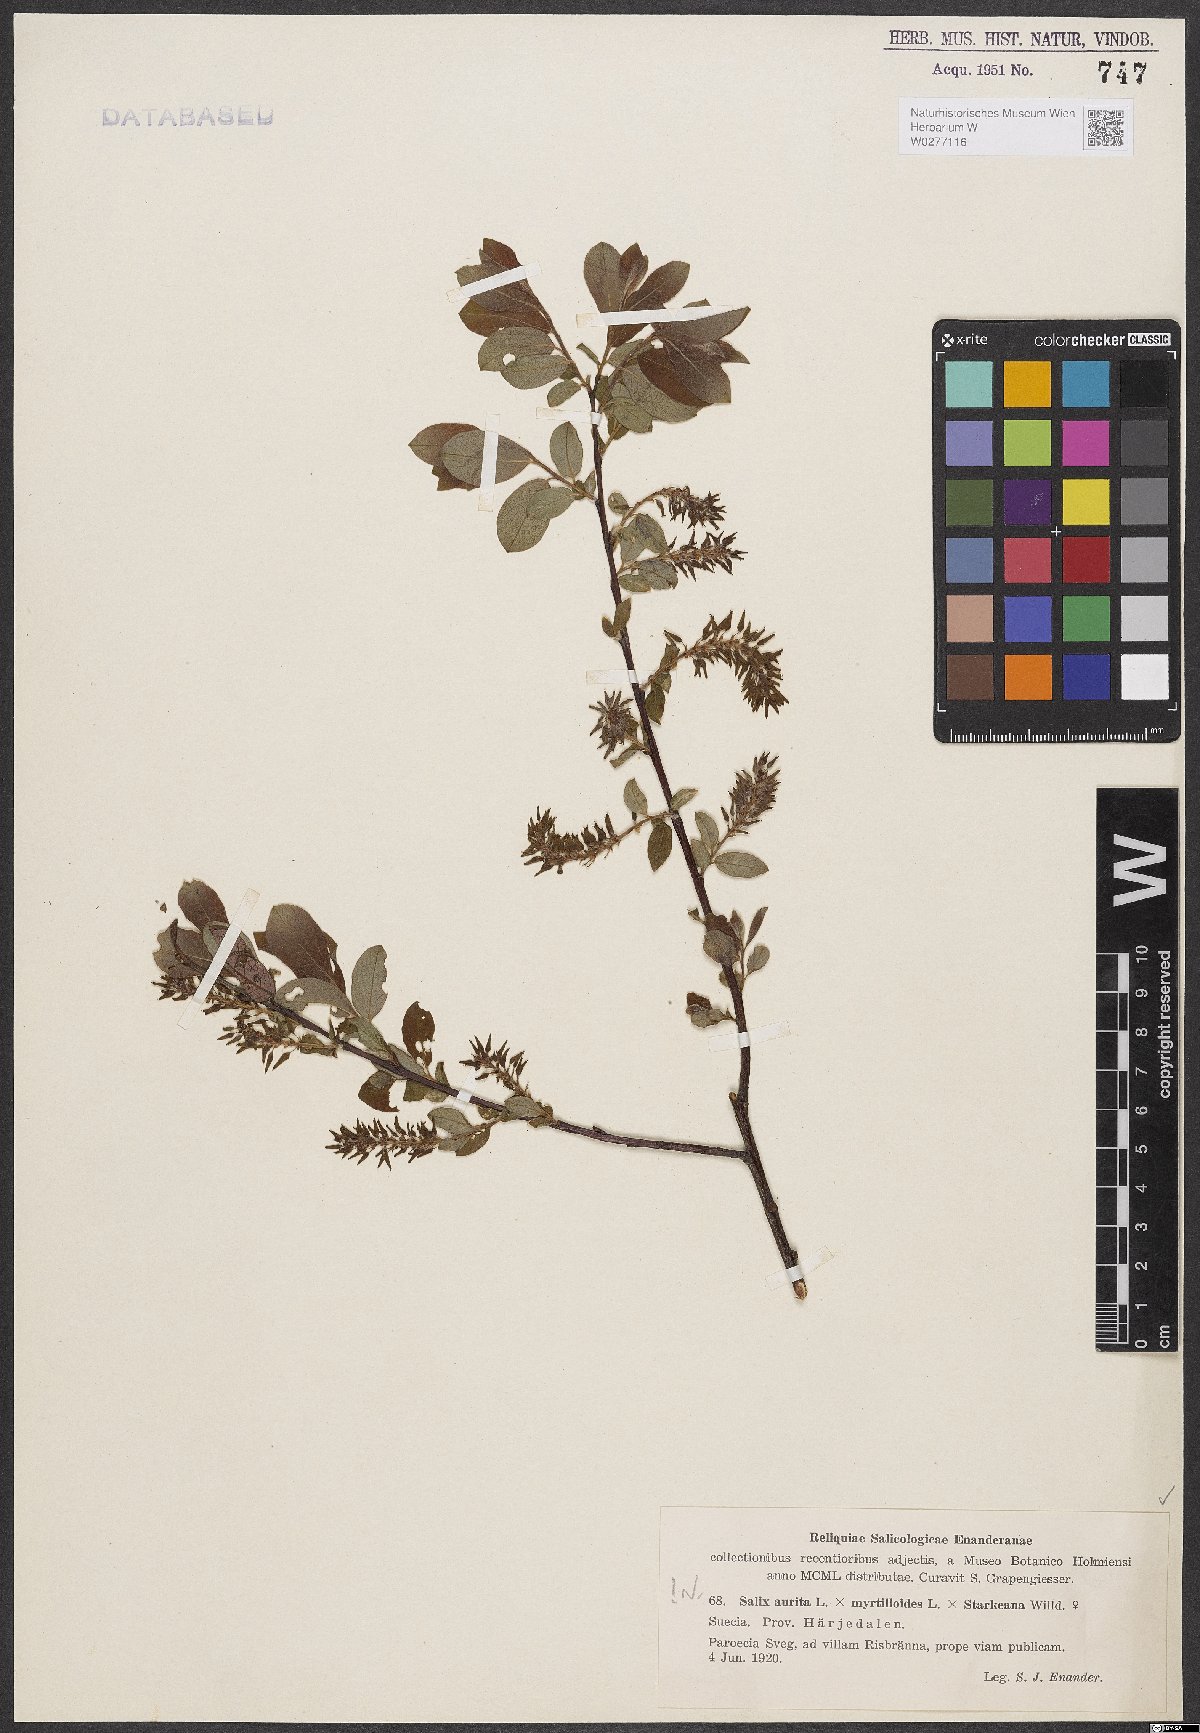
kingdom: Plantae
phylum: Tracheophyta
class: Magnoliopsida
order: Malpighiales
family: Salicaceae
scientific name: Salicaceae
